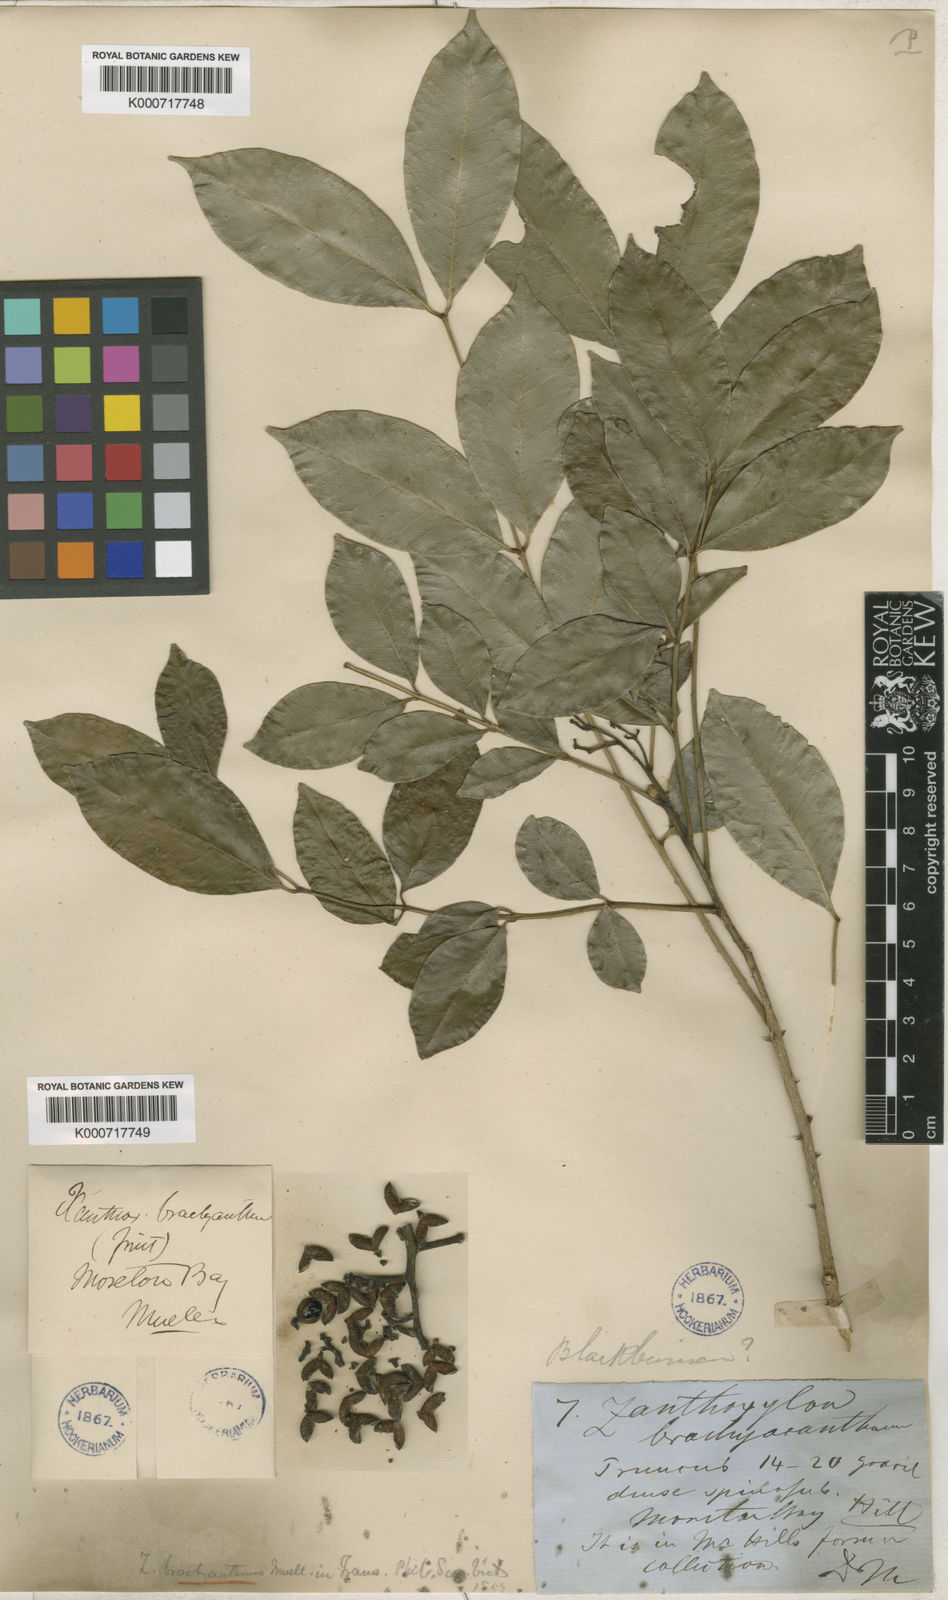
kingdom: Plantae
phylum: Tracheophyta
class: Magnoliopsida
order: Sapindales
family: Rutaceae
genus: Zanthoxylum
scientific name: Zanthoxylum brachyacanthum
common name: Satinwood
